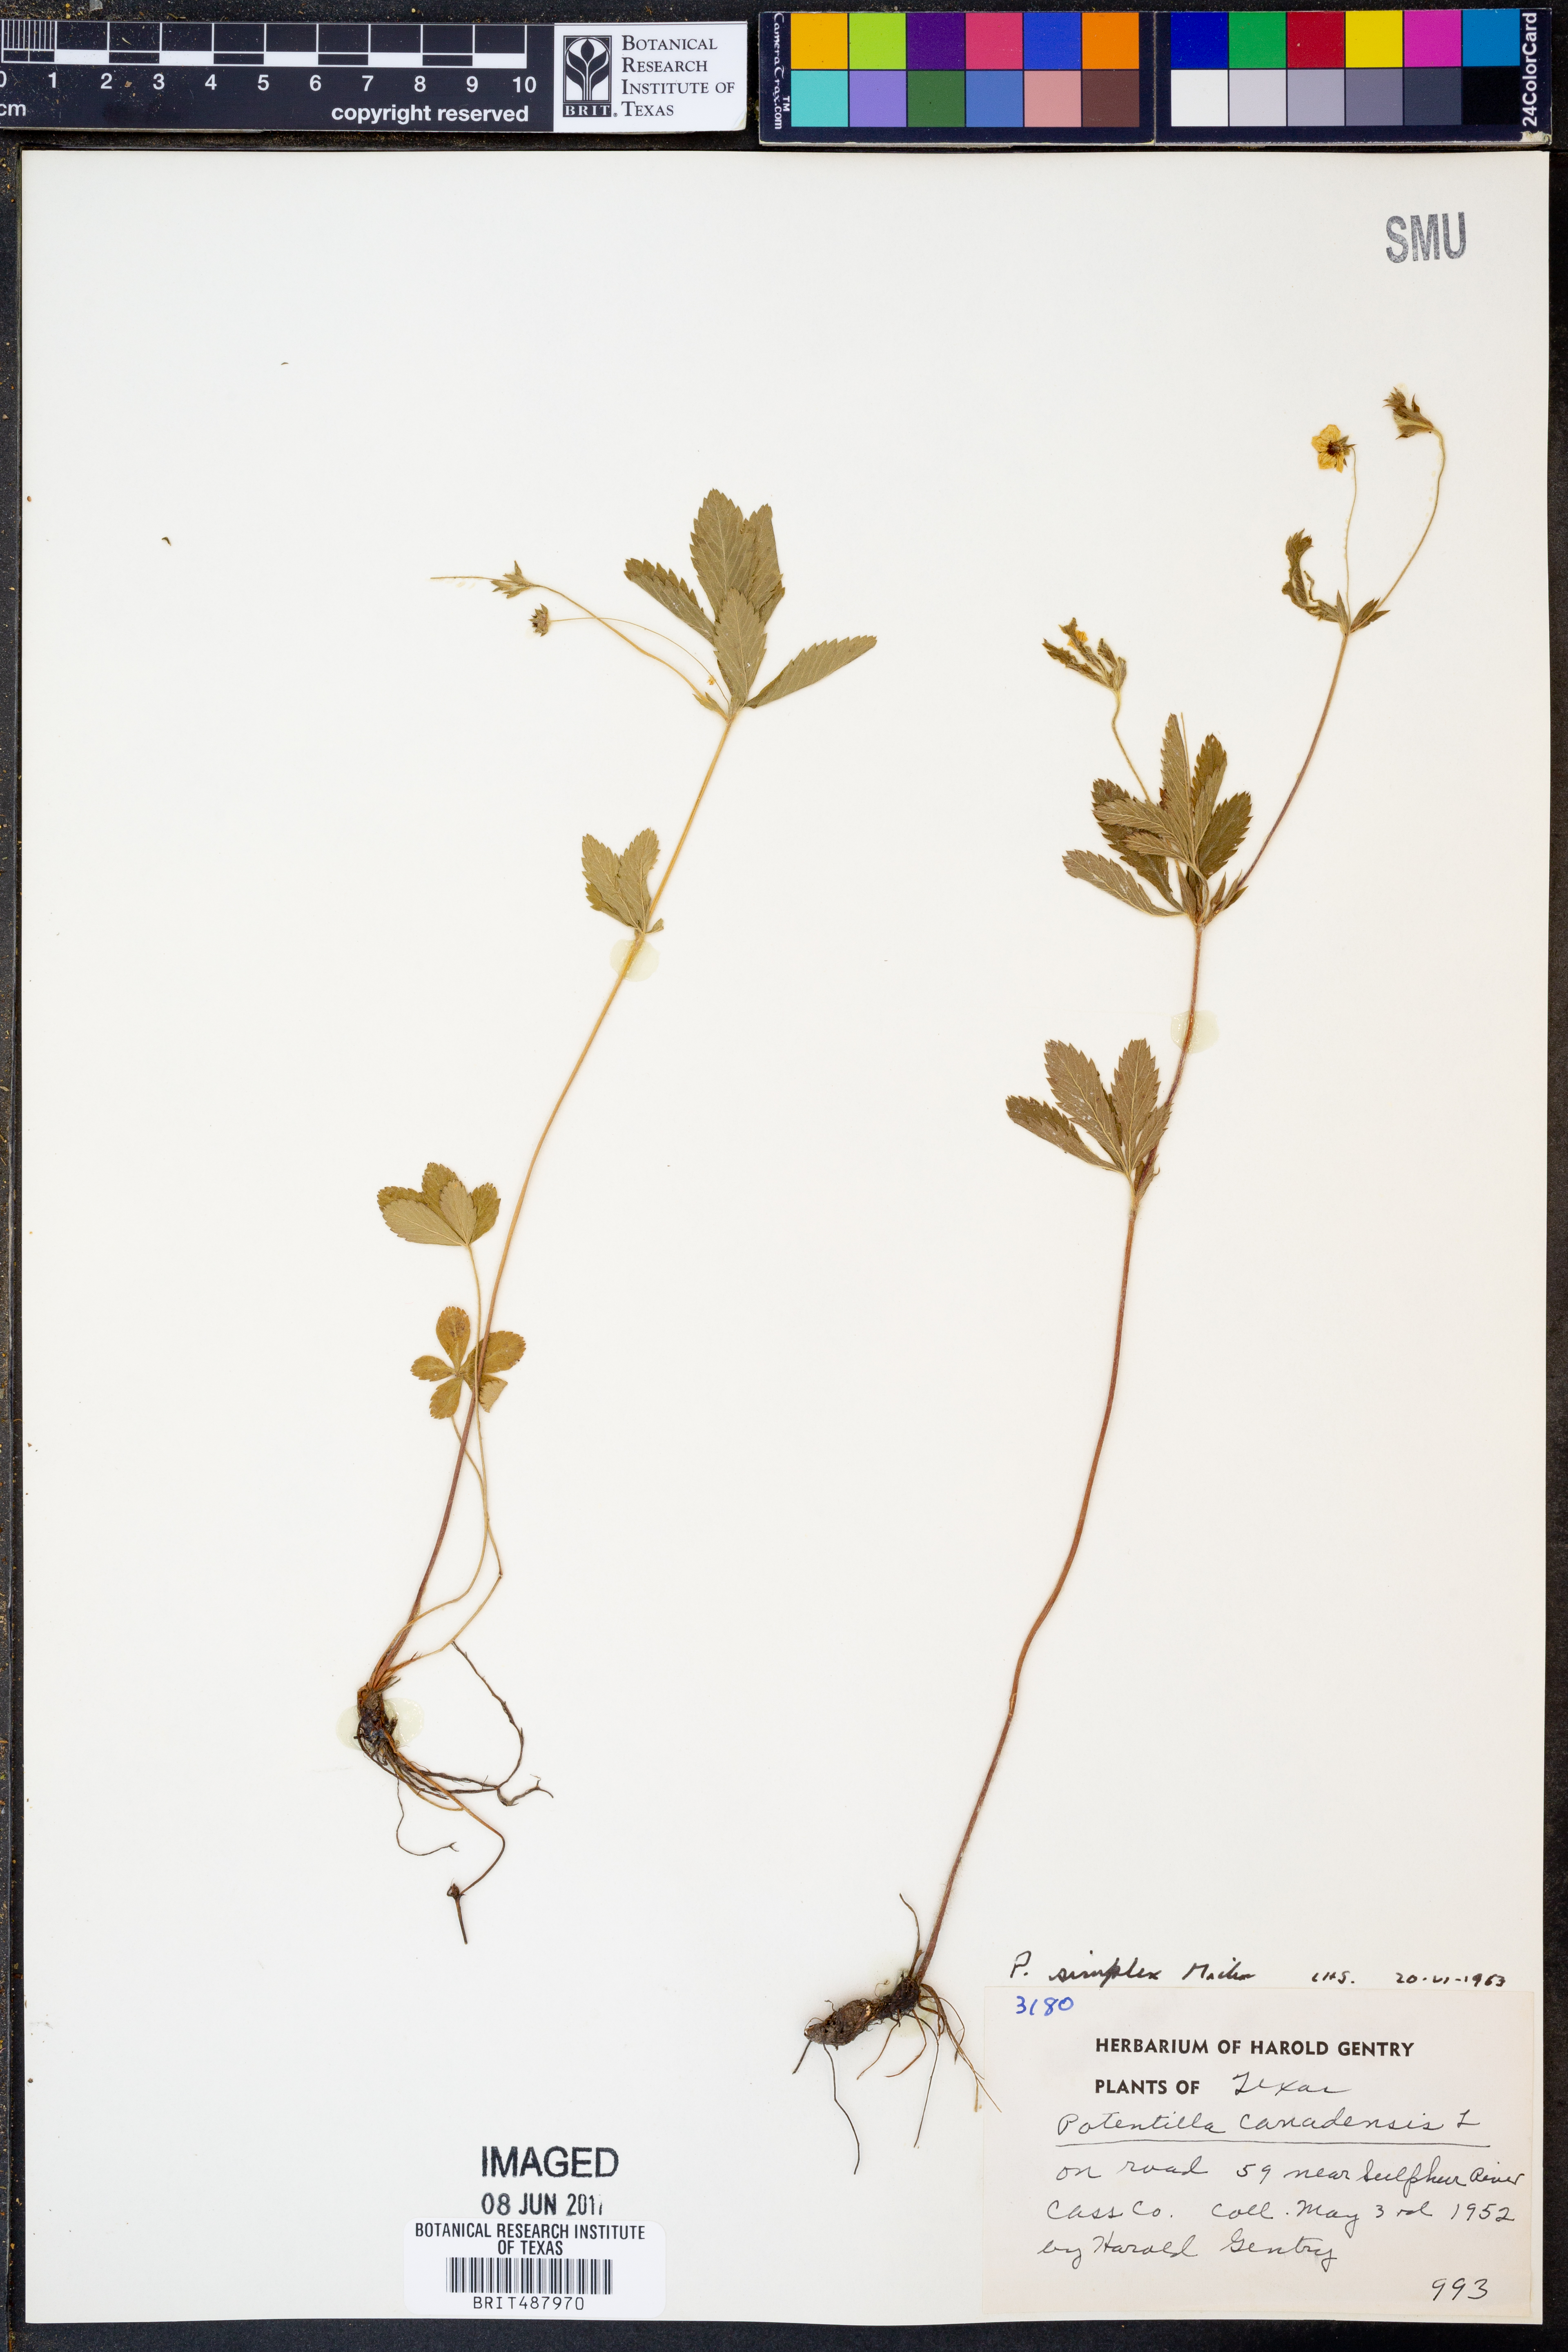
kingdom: Plantae
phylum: Tracheophyta
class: Magnoliopsida
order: Rosales
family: Rosaceae
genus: Potentilla
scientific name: Potentilla simplex
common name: Old field cinquefoil
